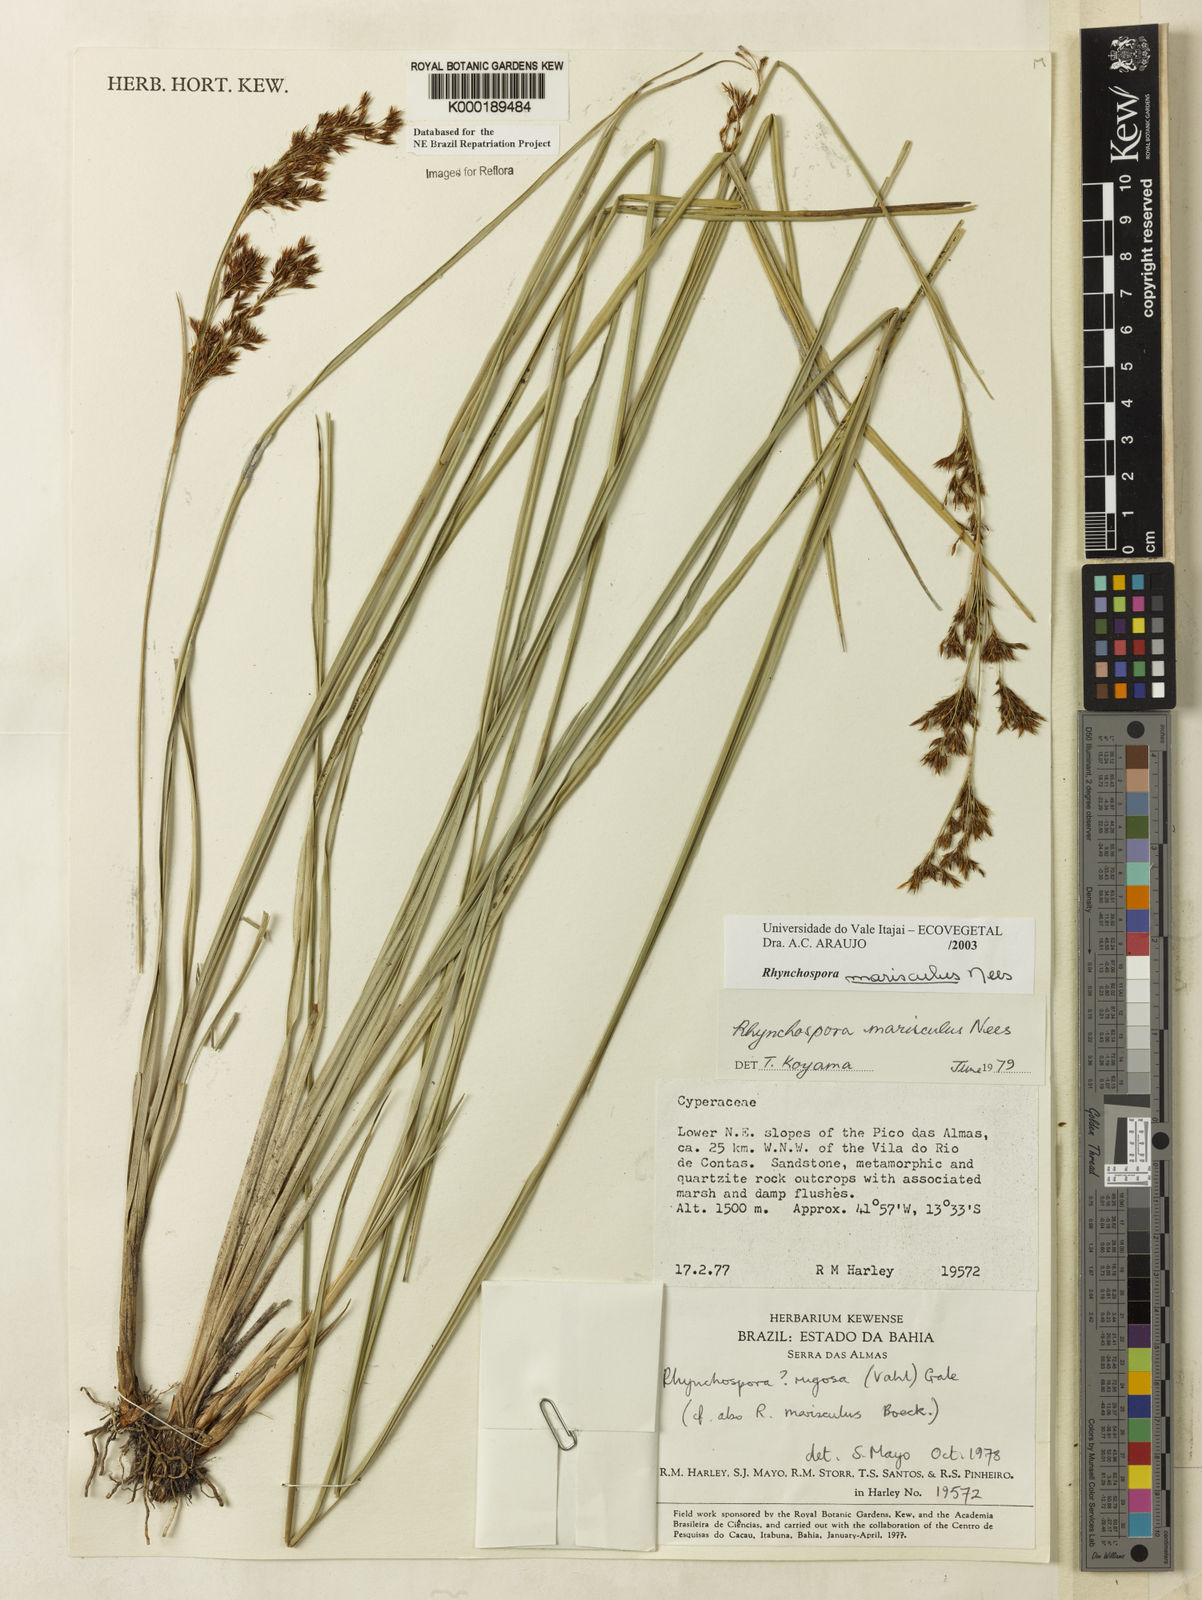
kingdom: Plantae
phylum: Tracheophyta
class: Liliopsida
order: Poales
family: Cyperaceae
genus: Rhynchospora
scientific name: Rhynchospora marisculus
